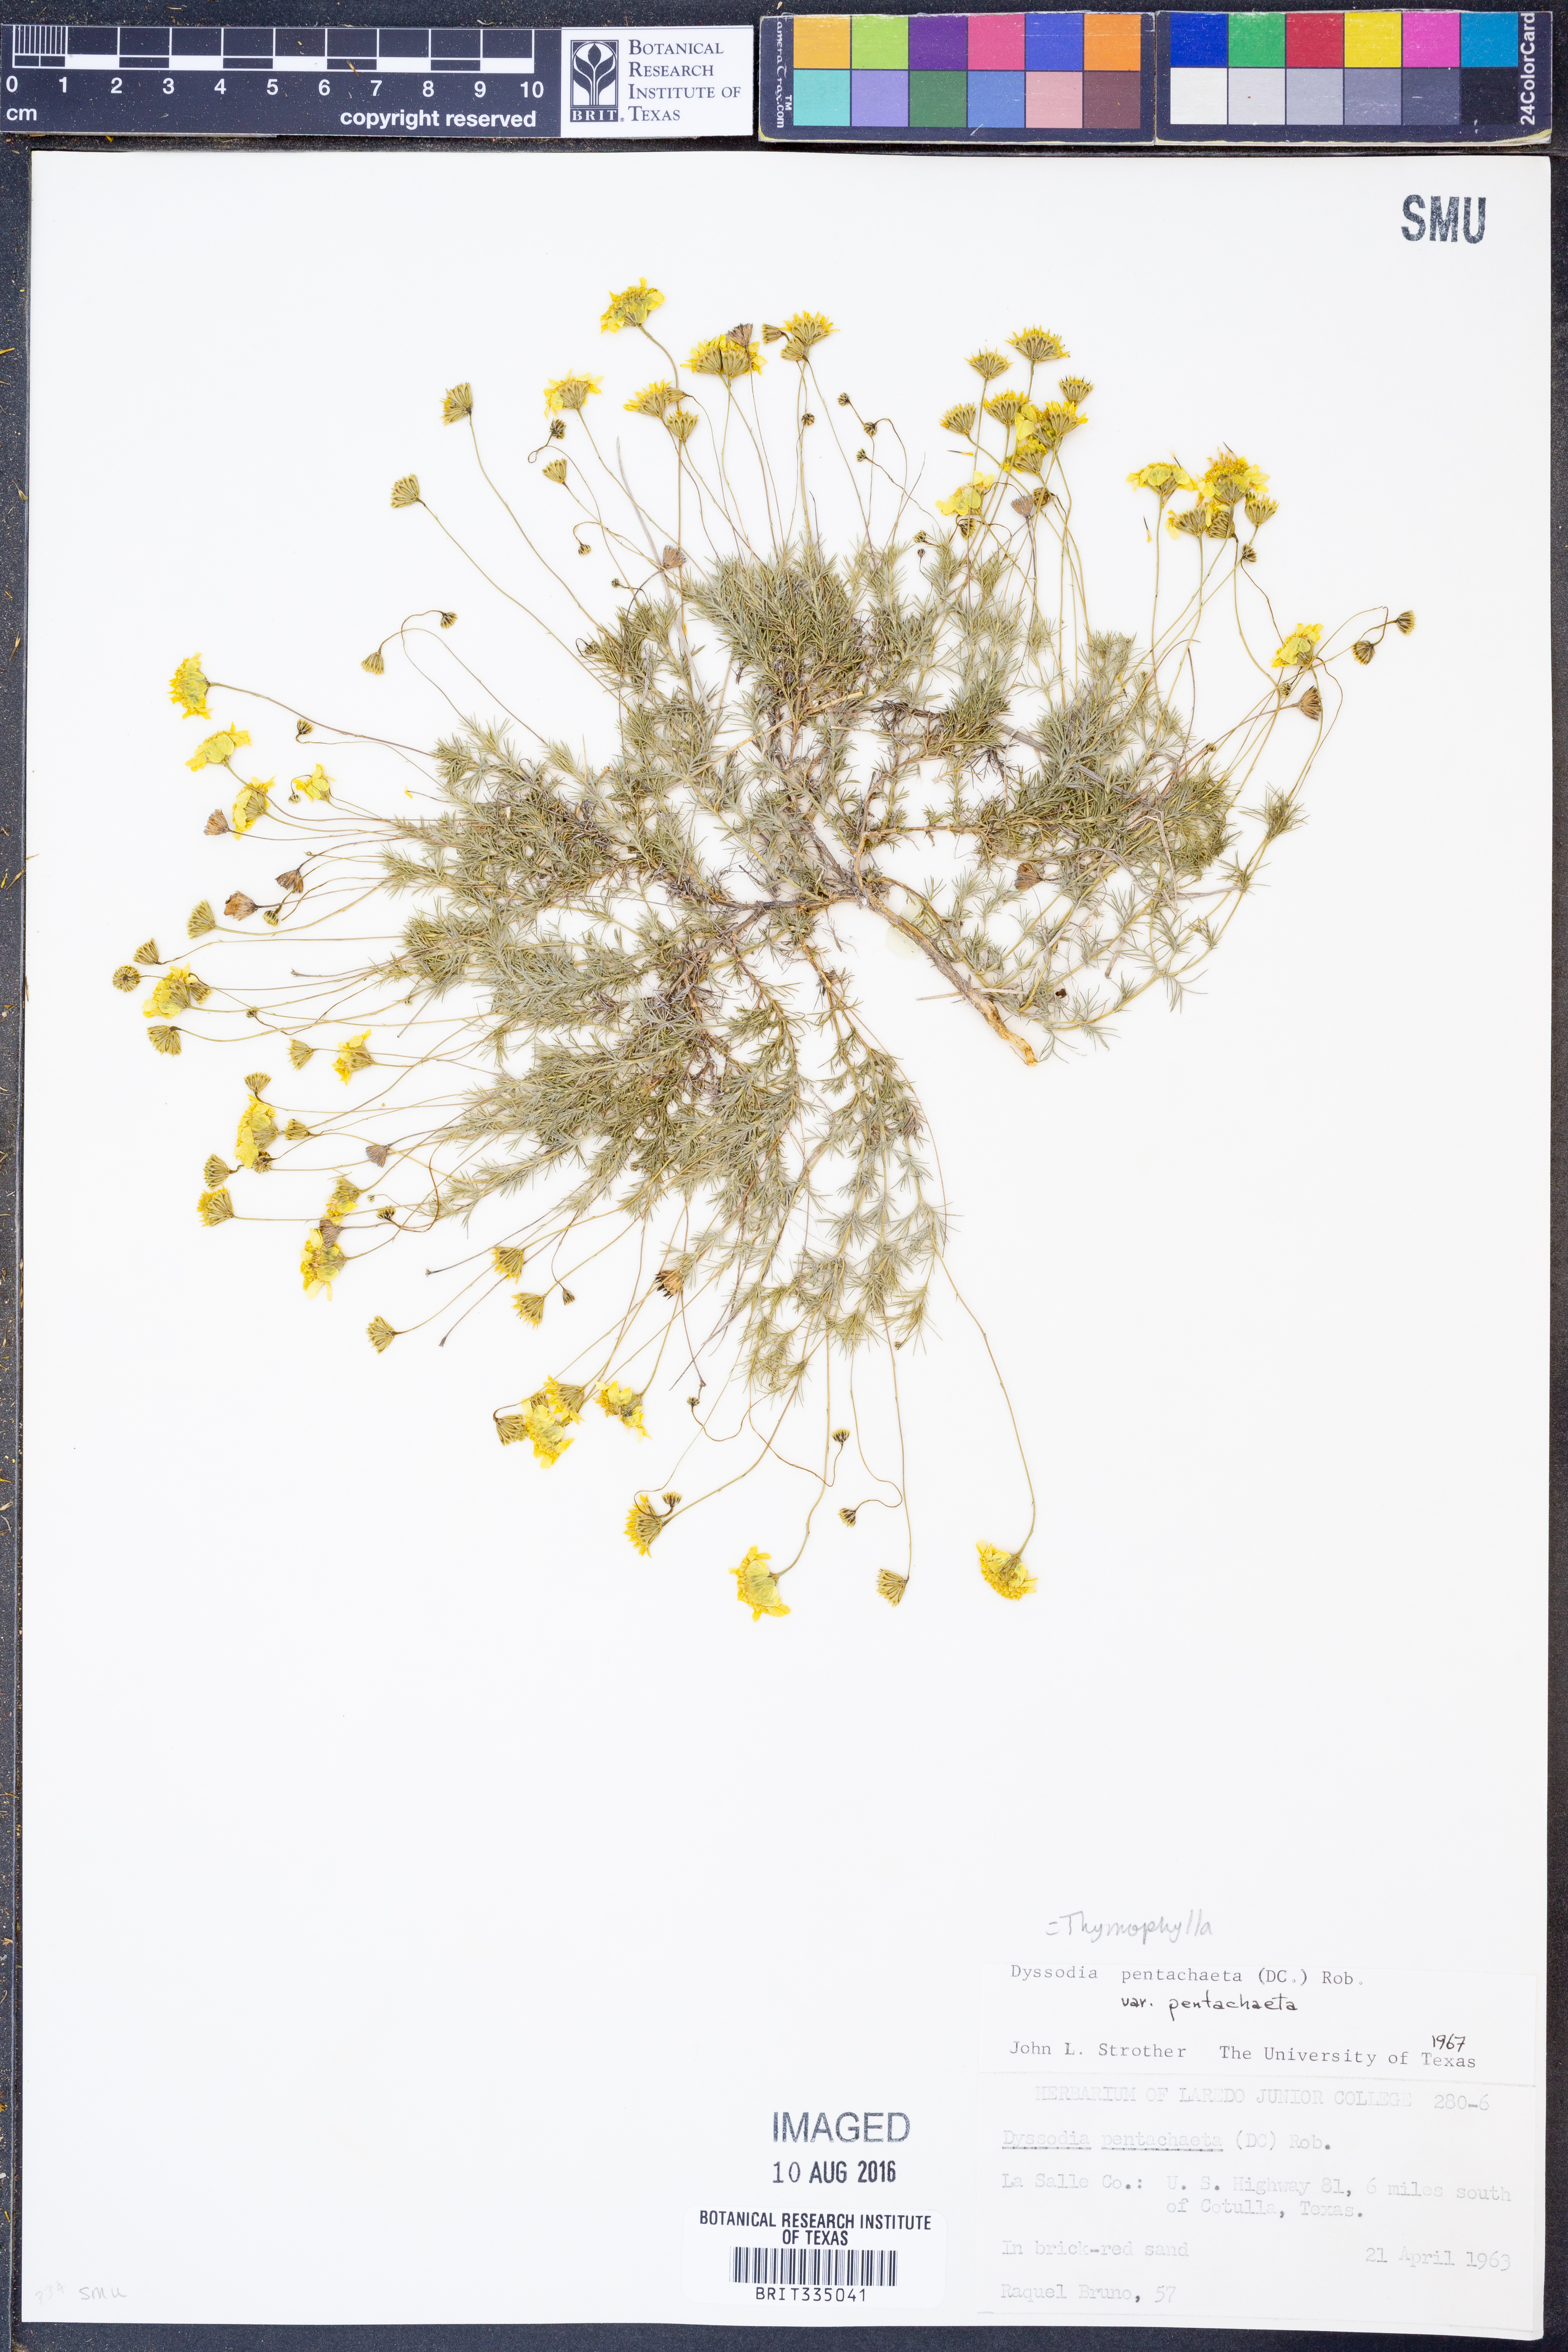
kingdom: Plantae
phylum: Tracheophyta
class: Magnoliopsida
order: Asterales
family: Asteraceae
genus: Thymophylla
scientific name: Thymophylla pentachaeta
